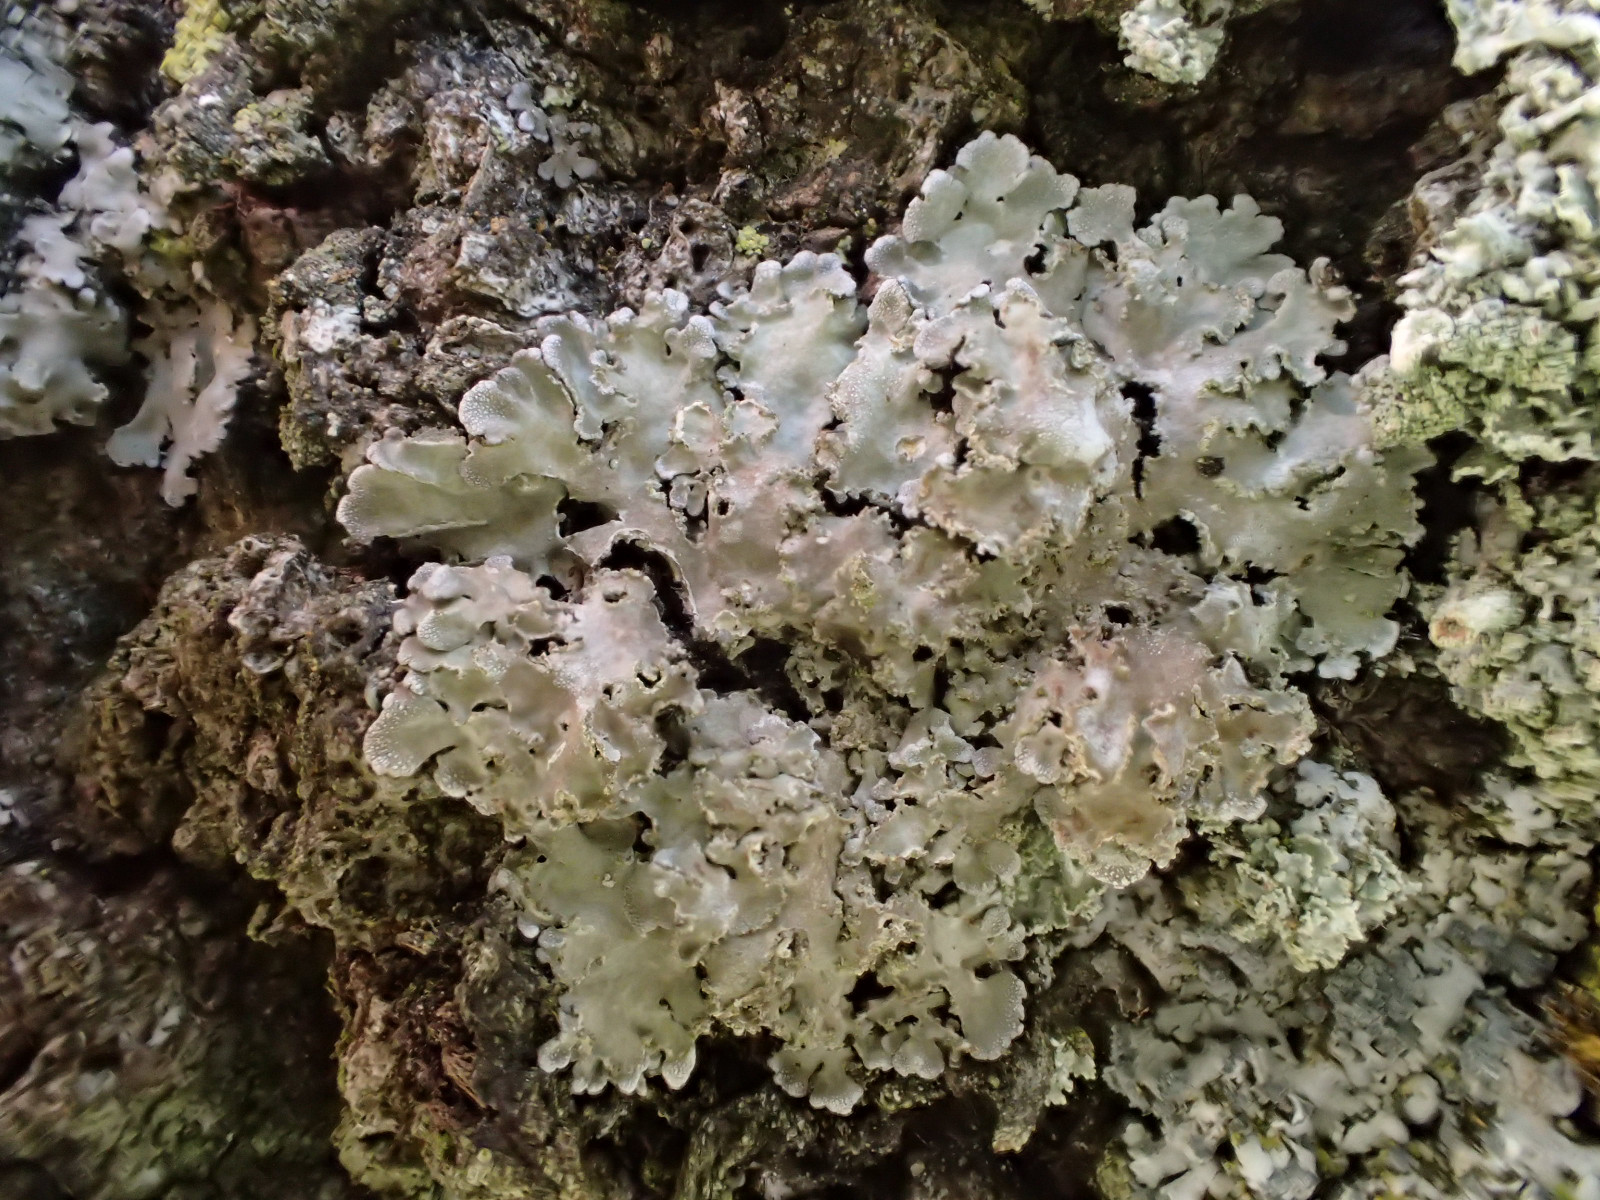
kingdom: Fungi
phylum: Ascomycota
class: Lecanoromycetes
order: Caliciales
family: Physciaceae
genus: Physconia
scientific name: Physconia perisidiosa
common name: liden dugrosetlav
